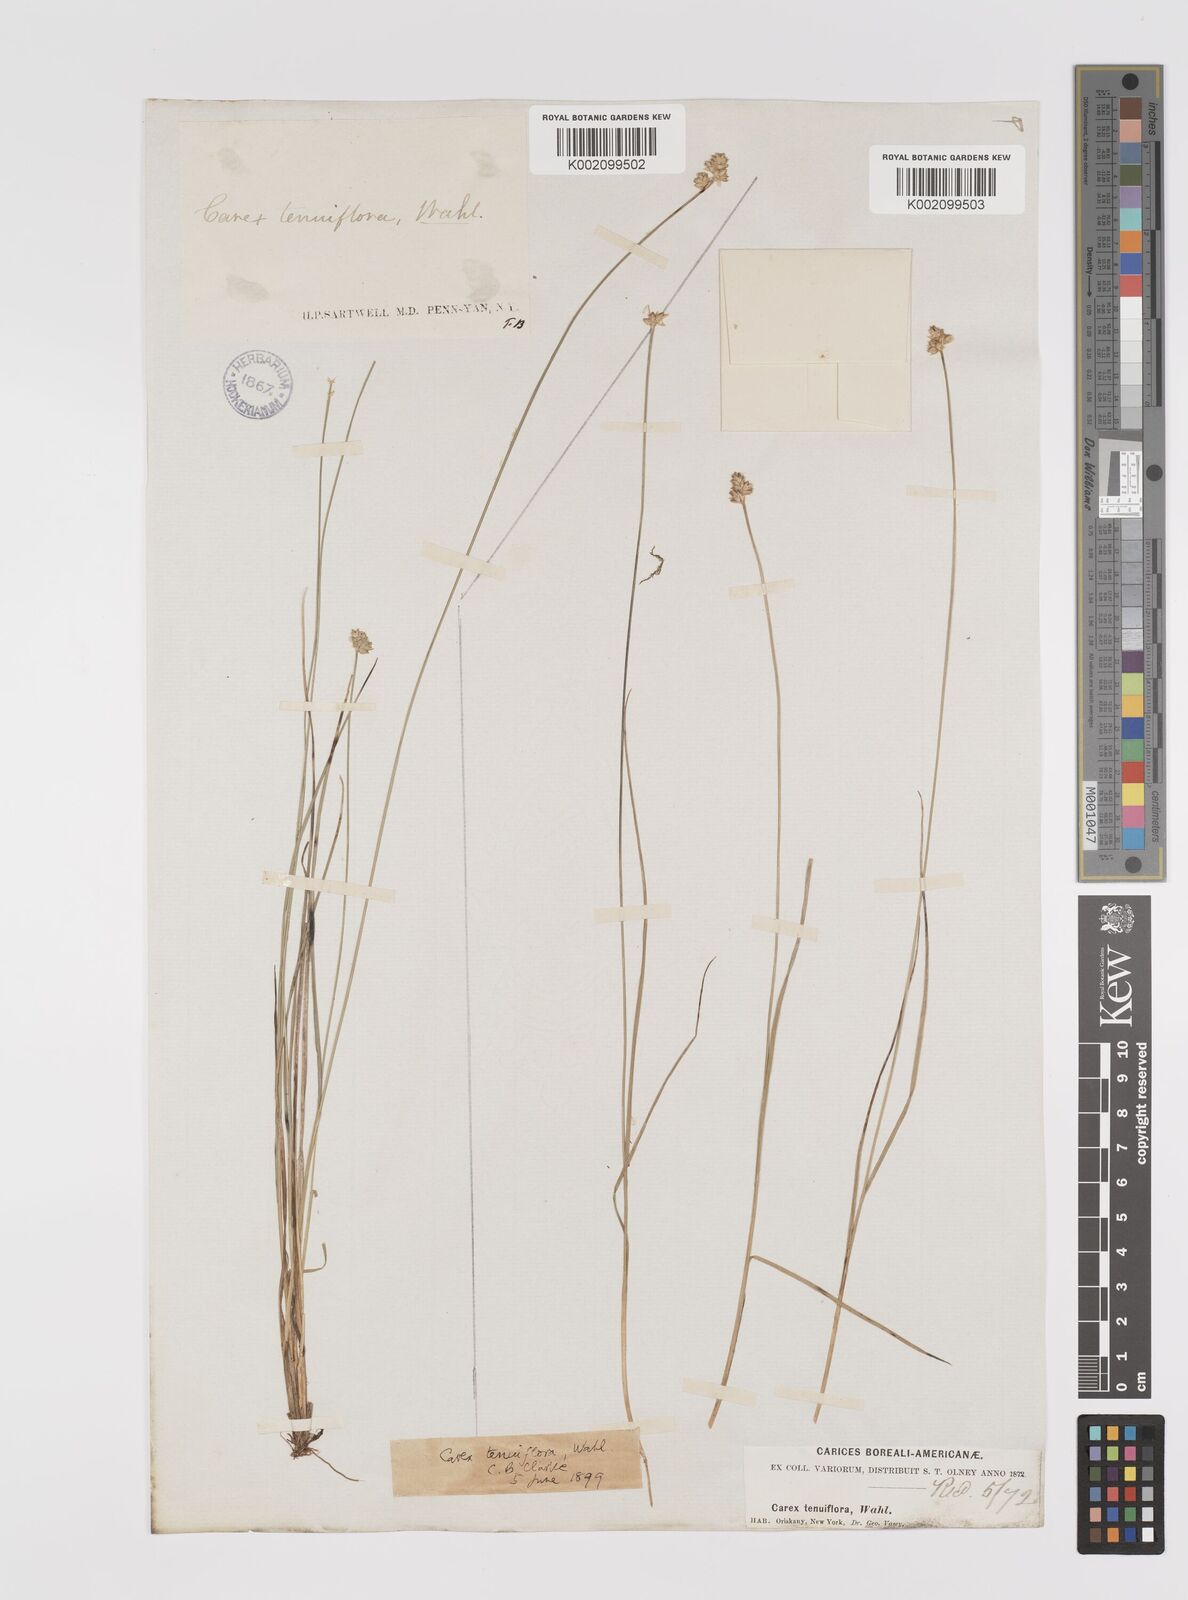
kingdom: Plantae
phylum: Tracheophyta
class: Liliopsida
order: Poales
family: Cyperaceae
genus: Carex
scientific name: Carex tenuiflora
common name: Sparse-flowered sedge
